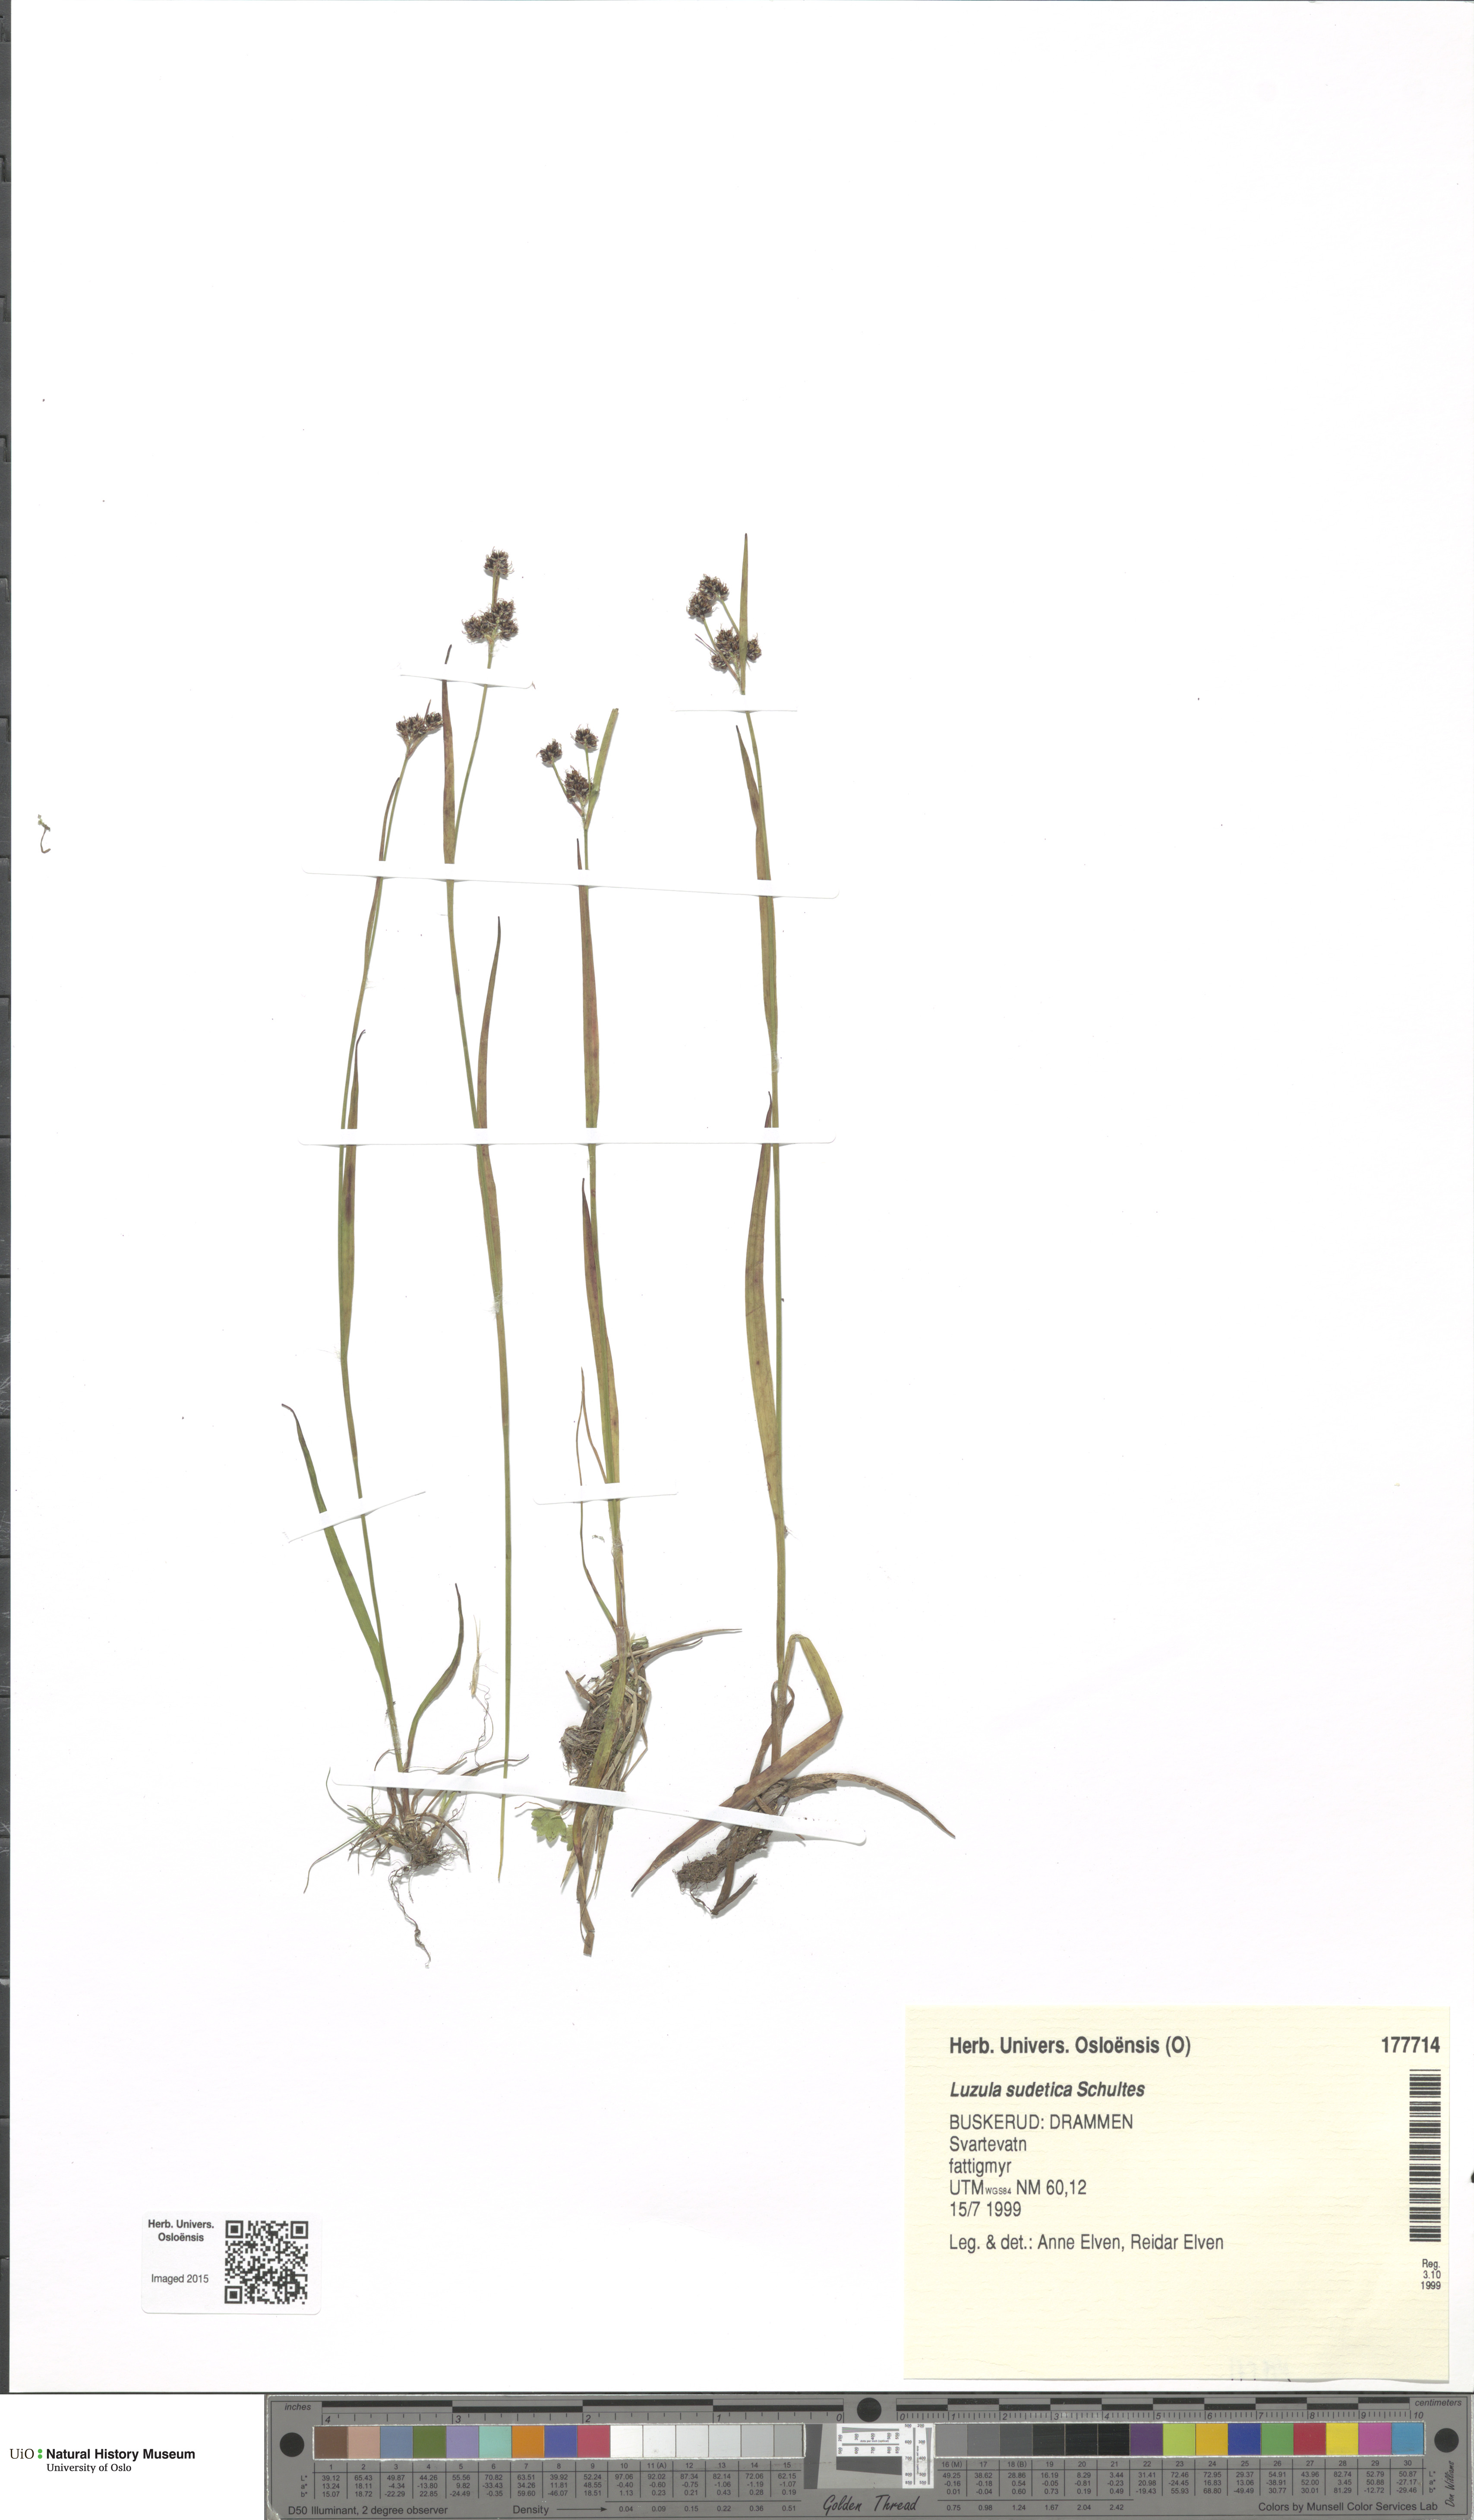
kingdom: Plantae
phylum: Tracheophyta
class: Liliopsida
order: Poales
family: Juncaceae
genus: Luzula
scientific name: Luzula sudetica
